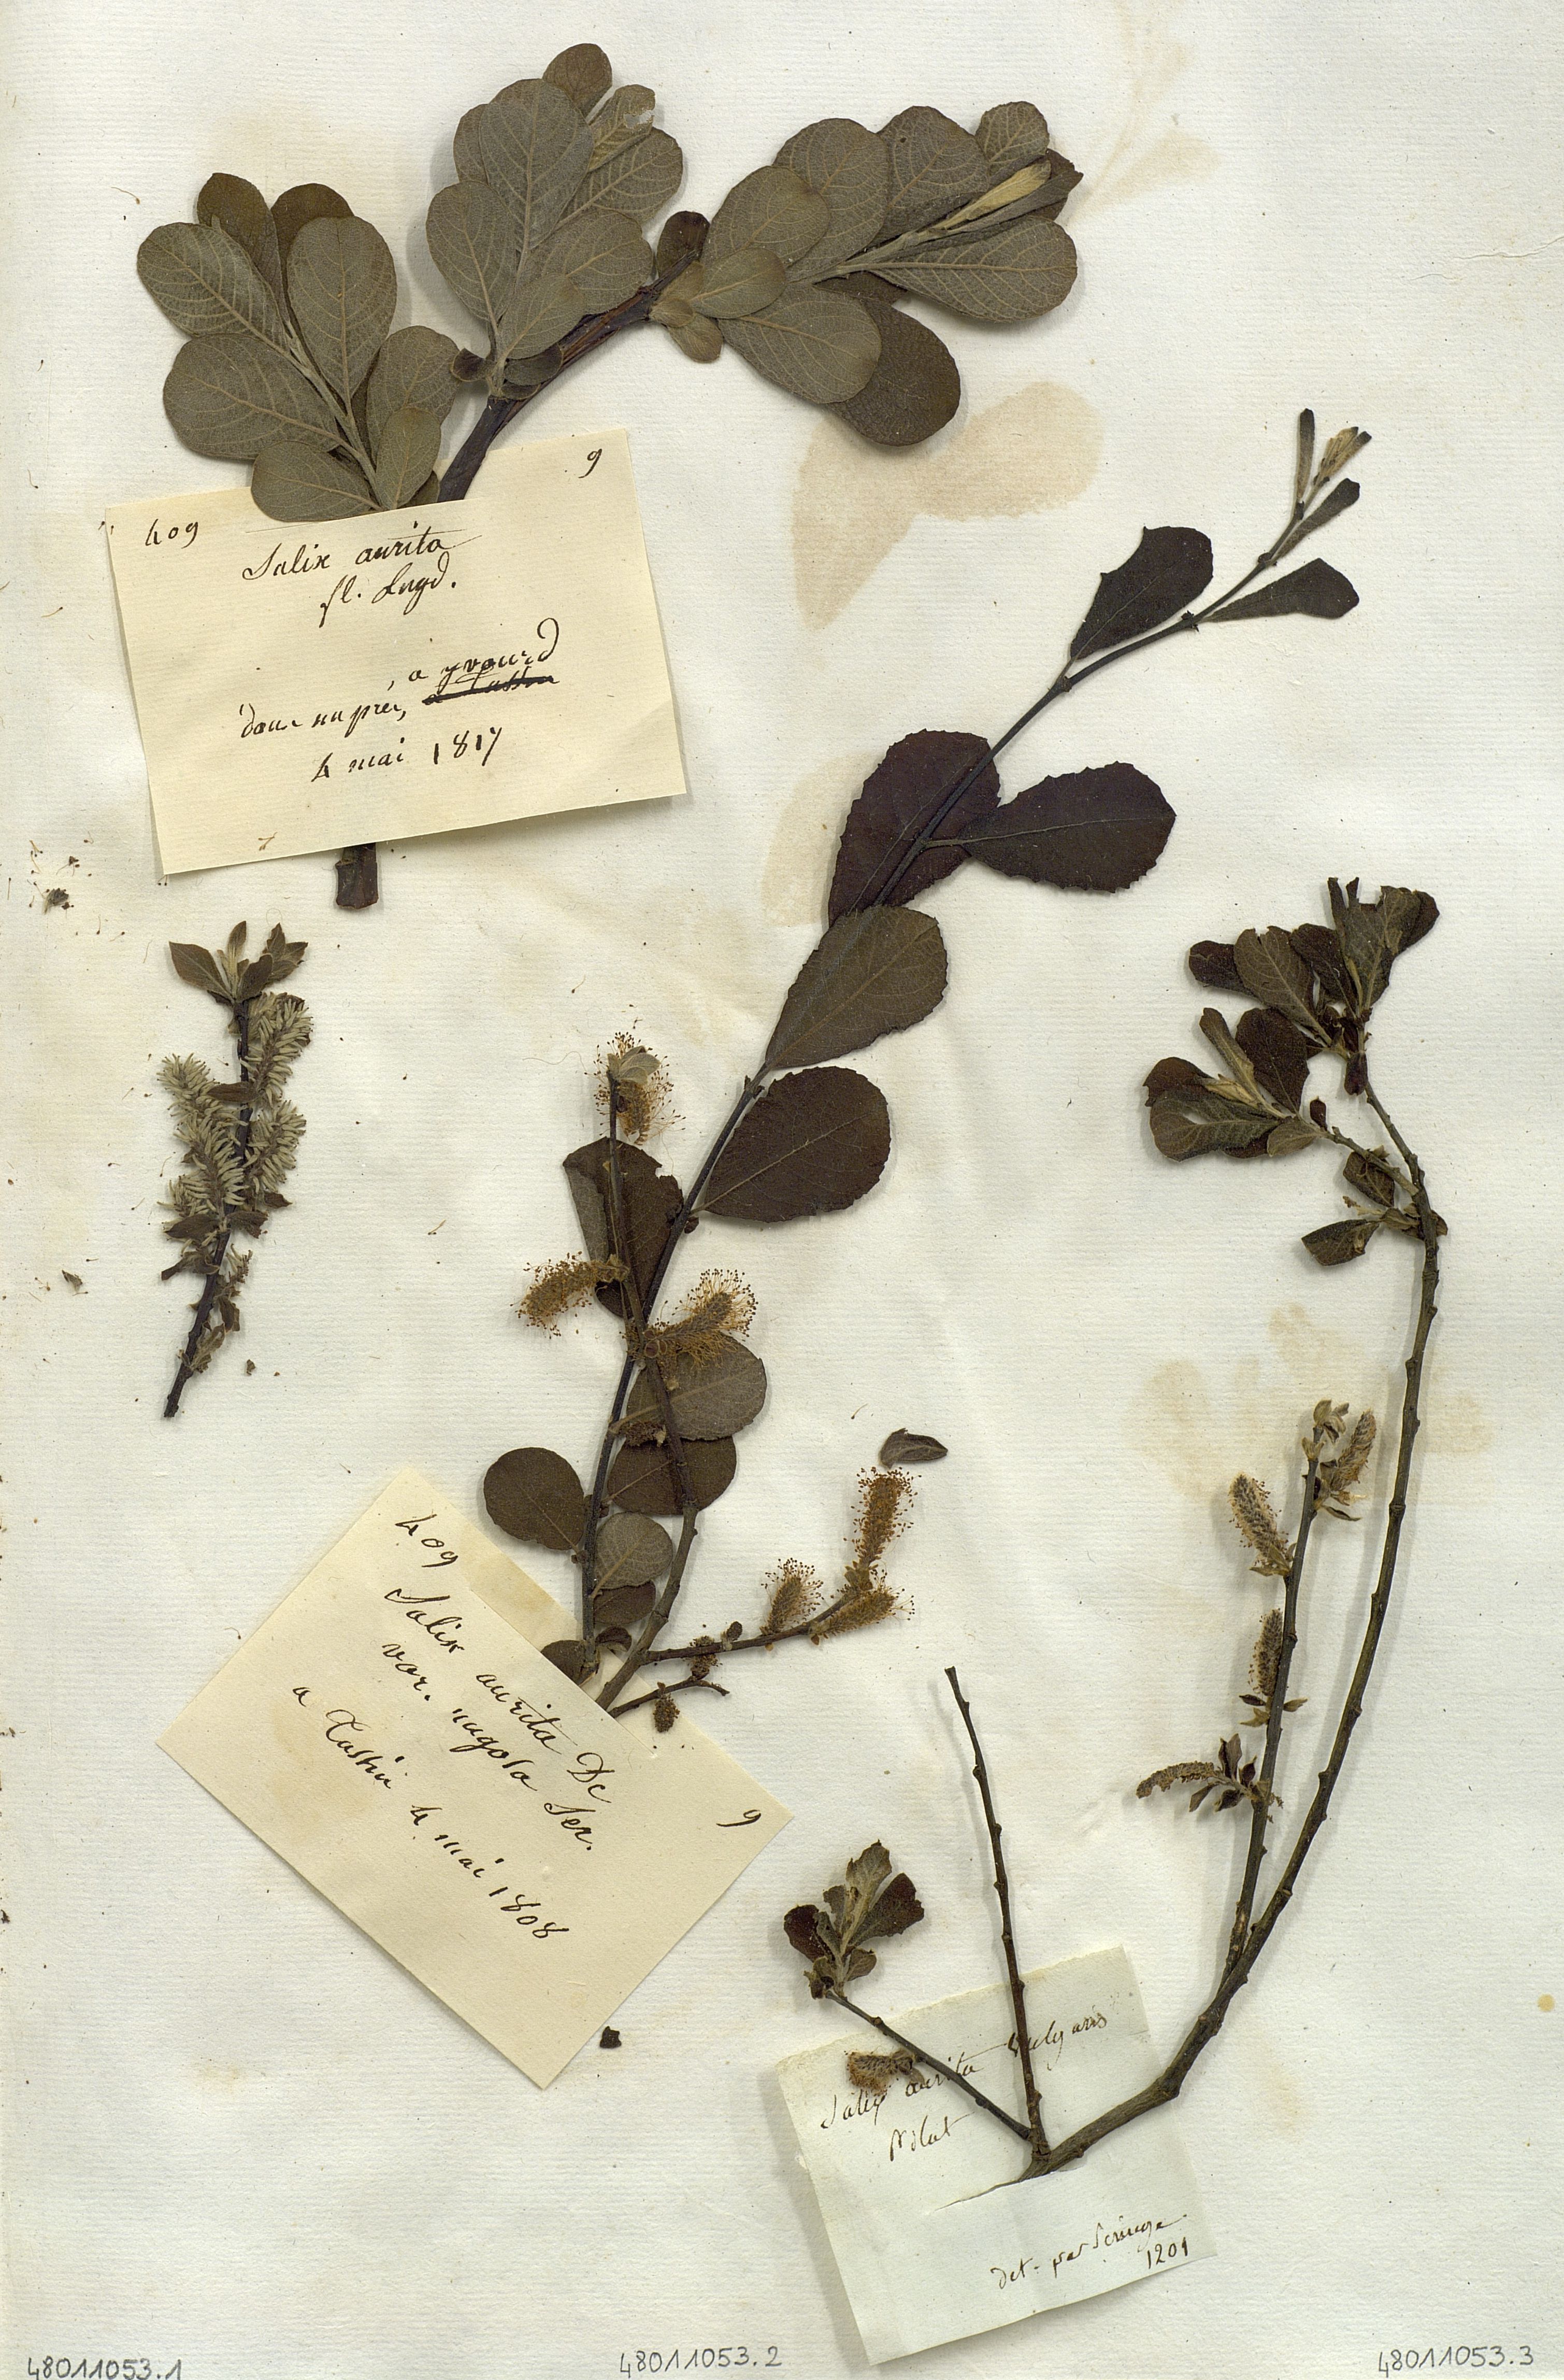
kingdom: Plantae
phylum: Tracheophyta
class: Magnoliopsida
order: Malpighiales
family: Salicaceae
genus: Salix
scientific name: Salix aurita
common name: Eared willow
